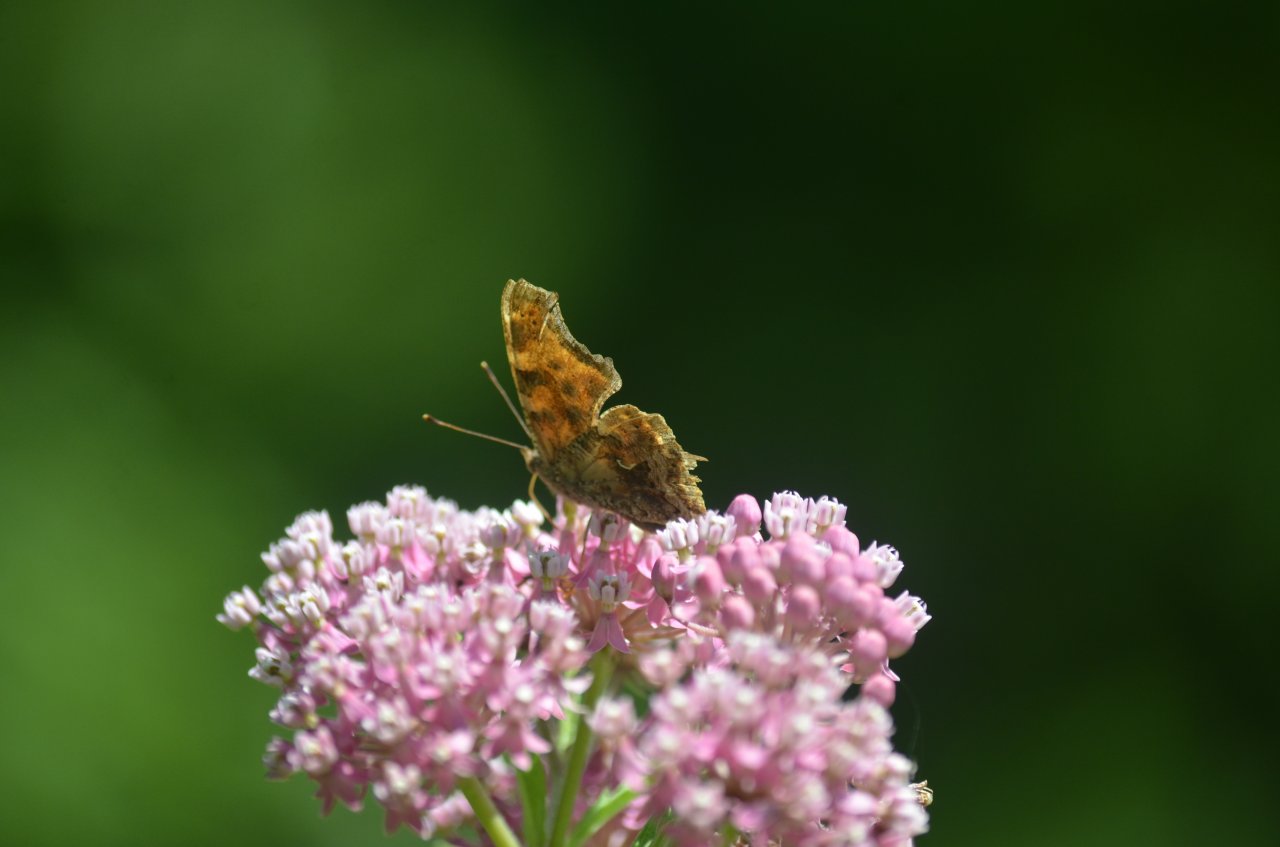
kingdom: Animalia
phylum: Arthropoda
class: Insecta
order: Lepidoptera
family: Nymphalidae
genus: Polygonia
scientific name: Polygonia comma
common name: Eastern Comma
